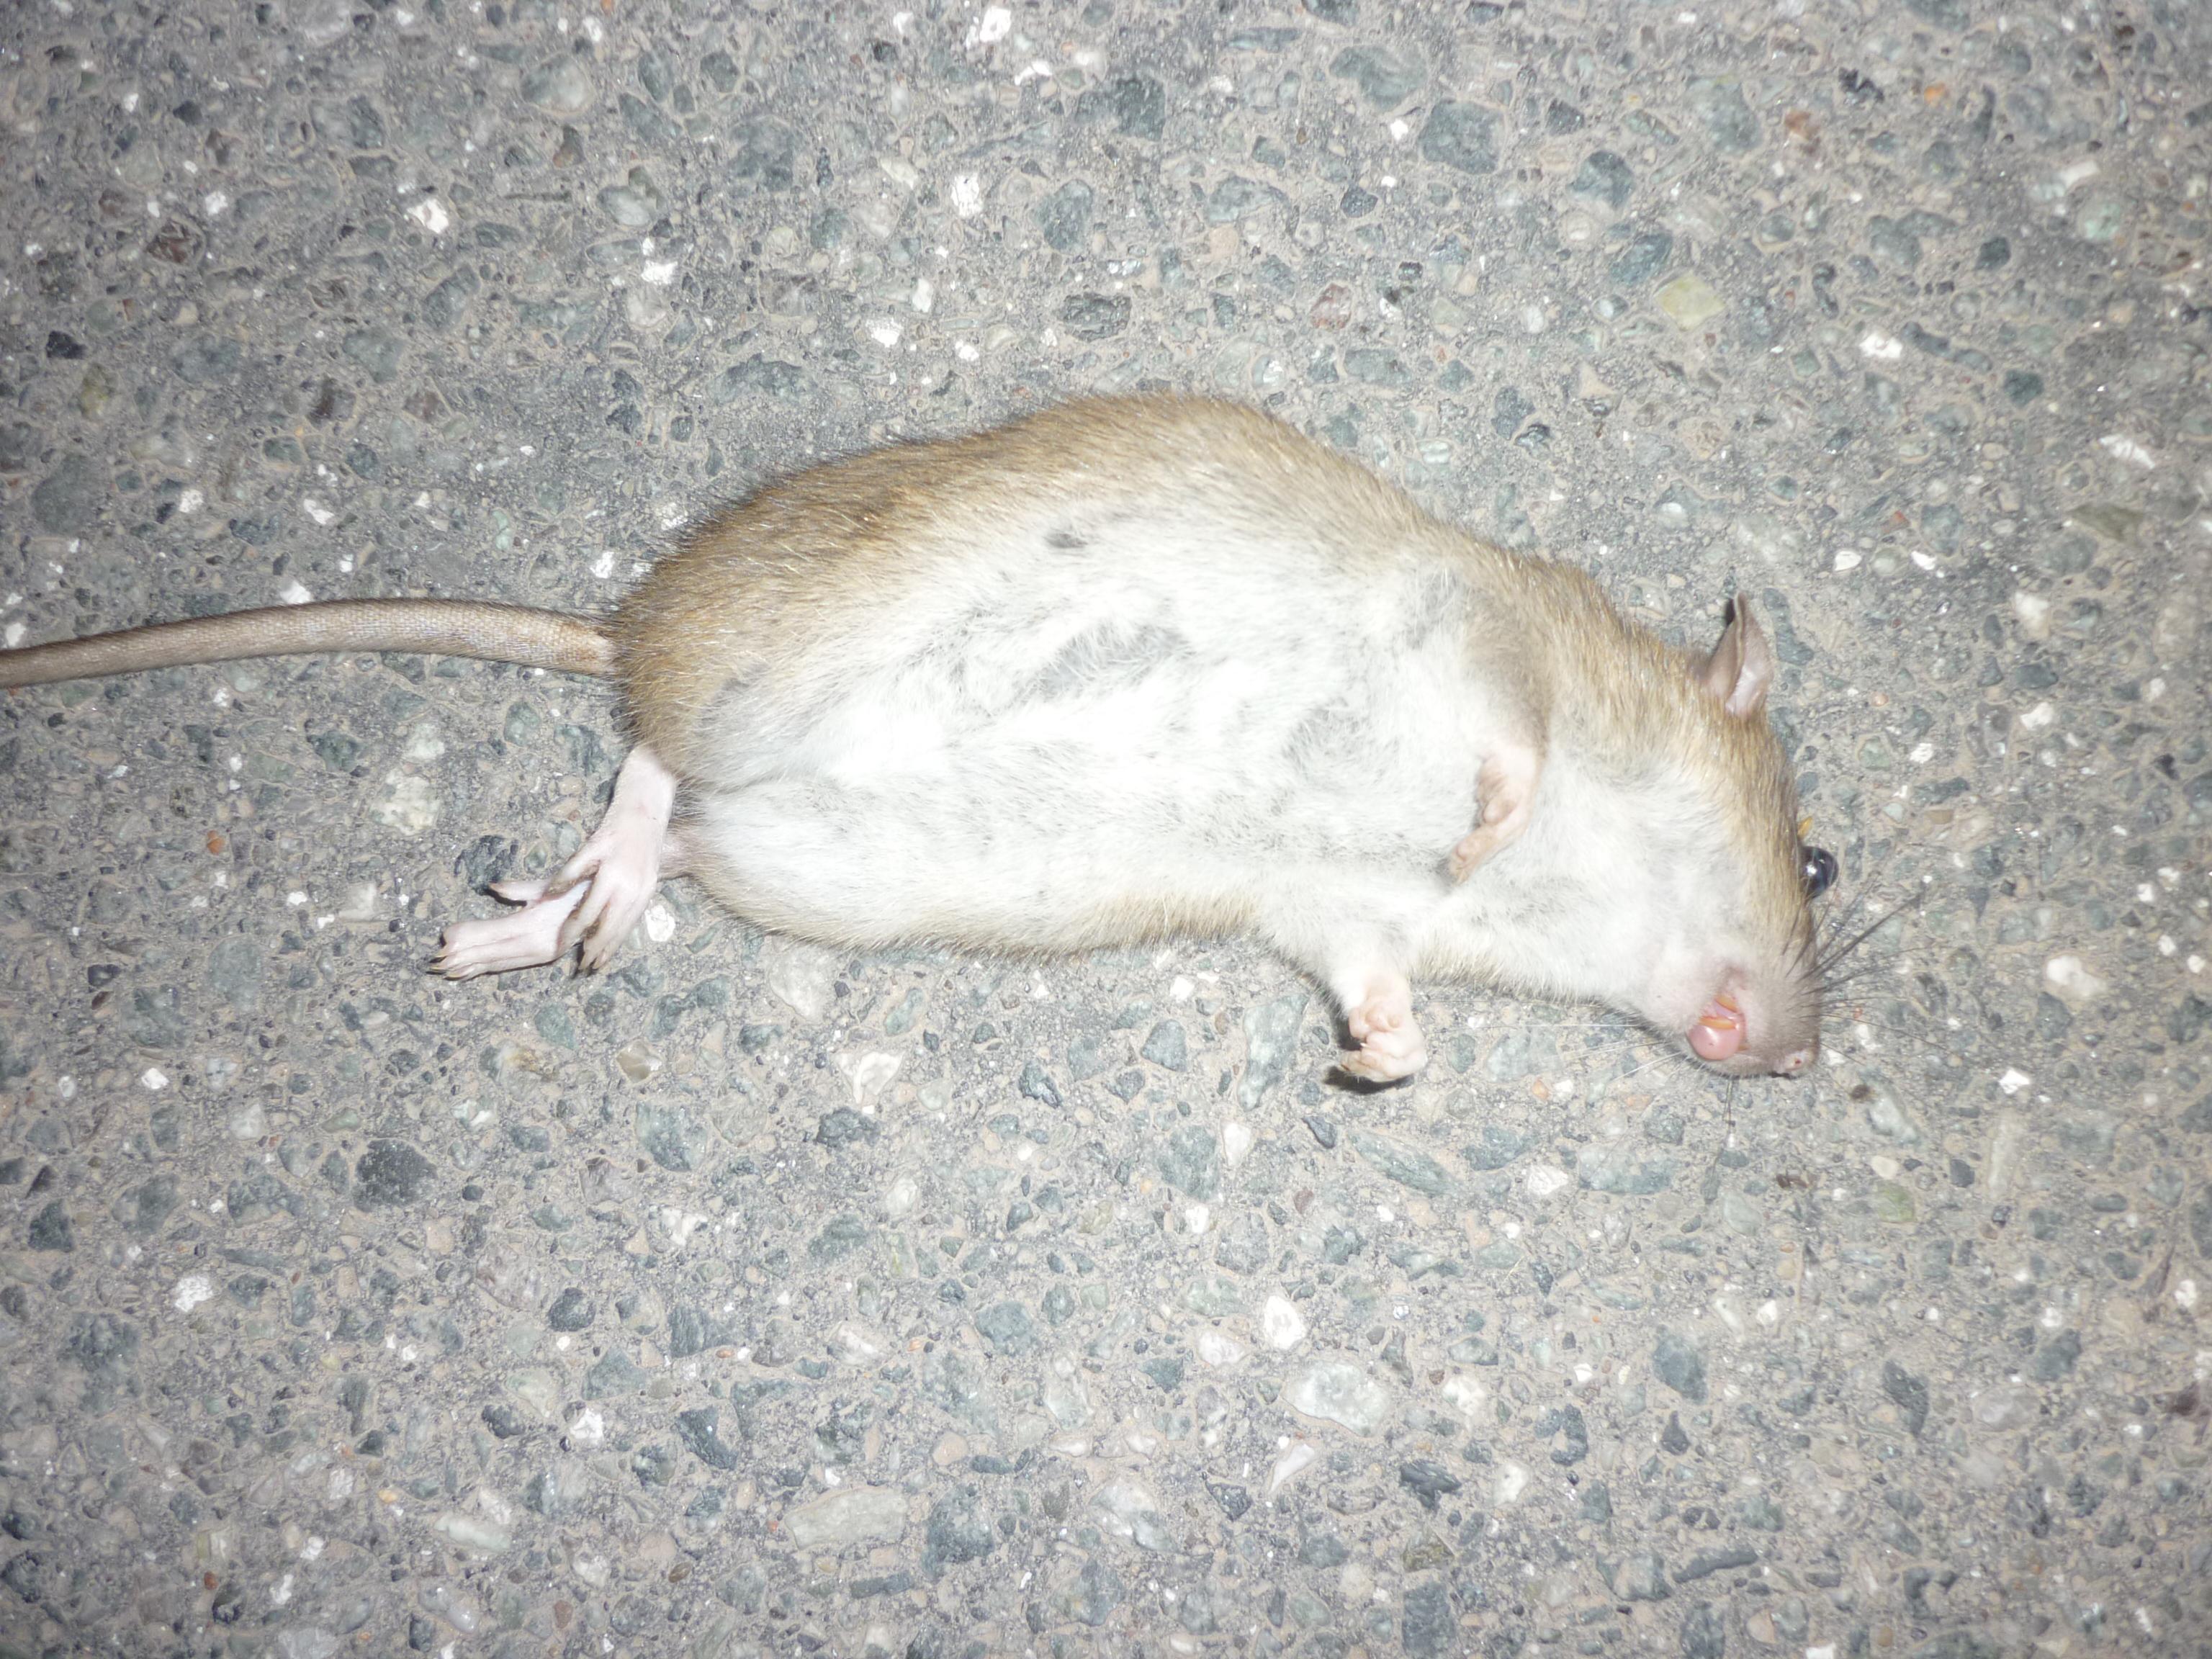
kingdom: Animalia
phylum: Chordata
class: Mammalia
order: Rodentia
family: Muridae
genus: Rattus
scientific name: Rattus norvegicus
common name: Brown rat
